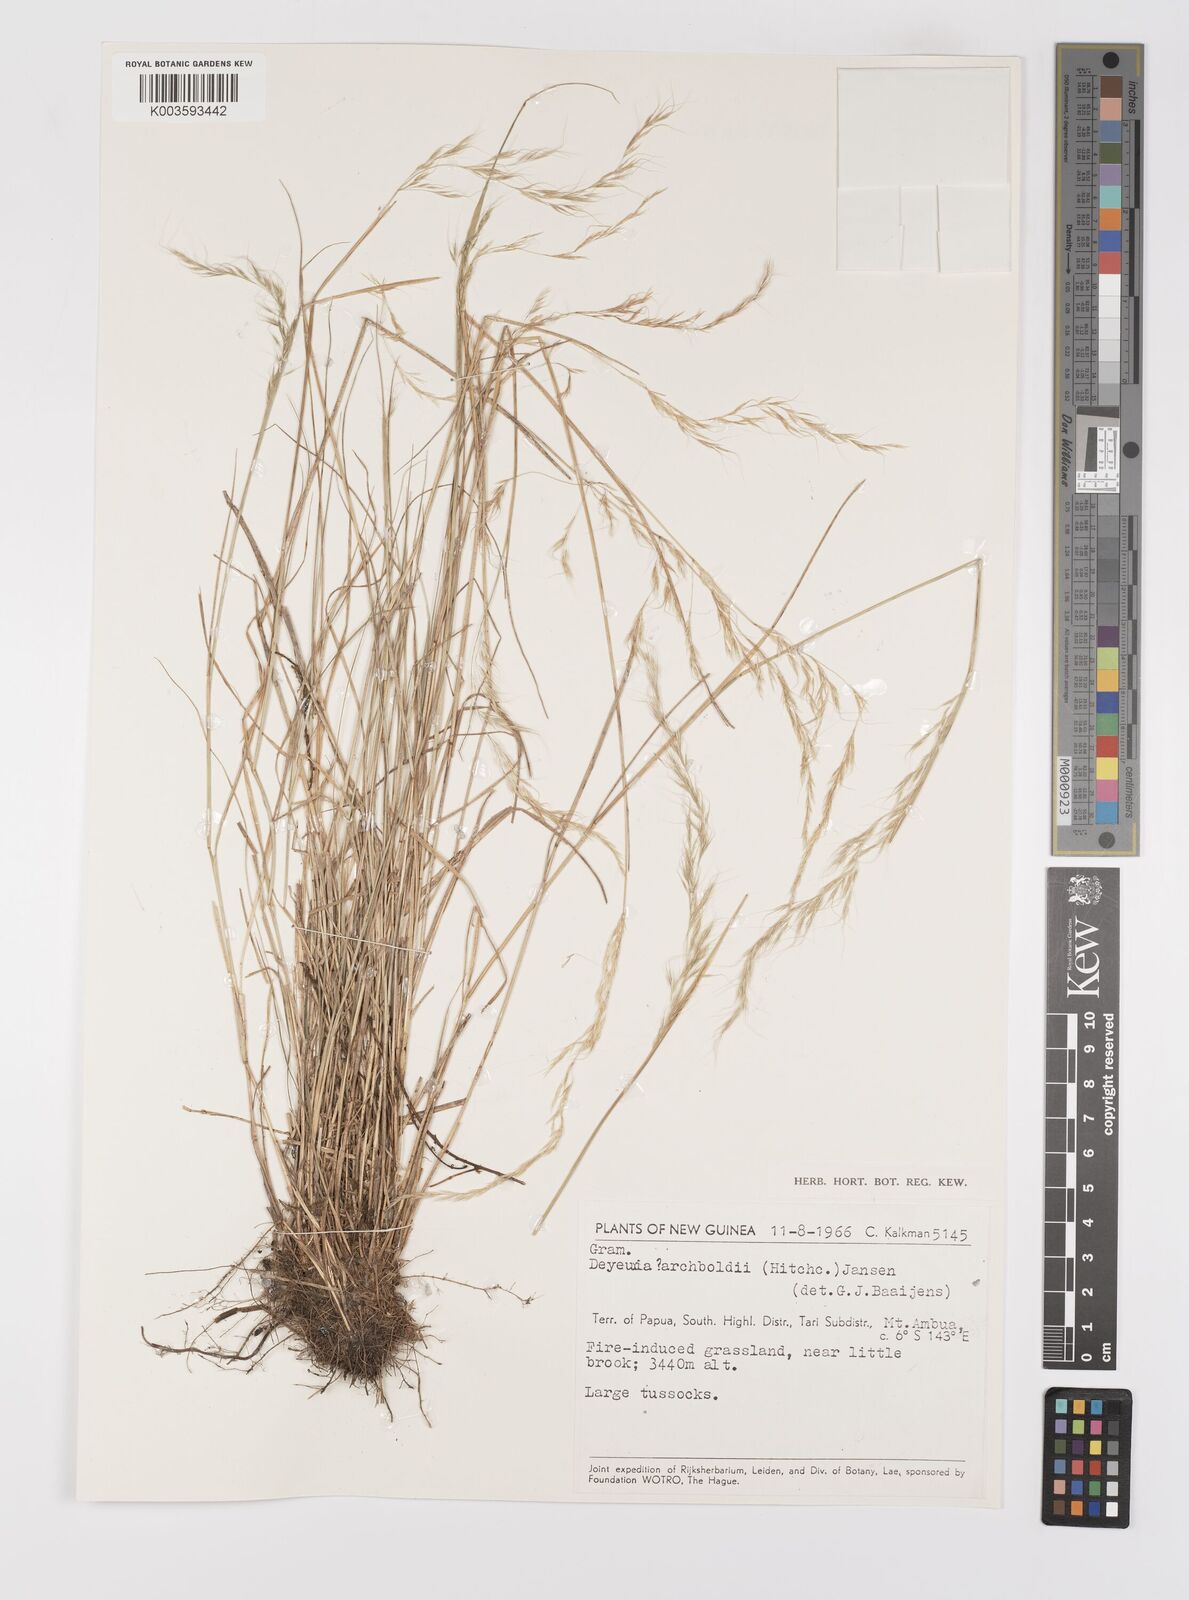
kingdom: Plantae
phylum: Tracheophyta
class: Liliopsida
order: Poales
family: Poaceae
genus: Dichelachne
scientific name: Dichelachne rara
